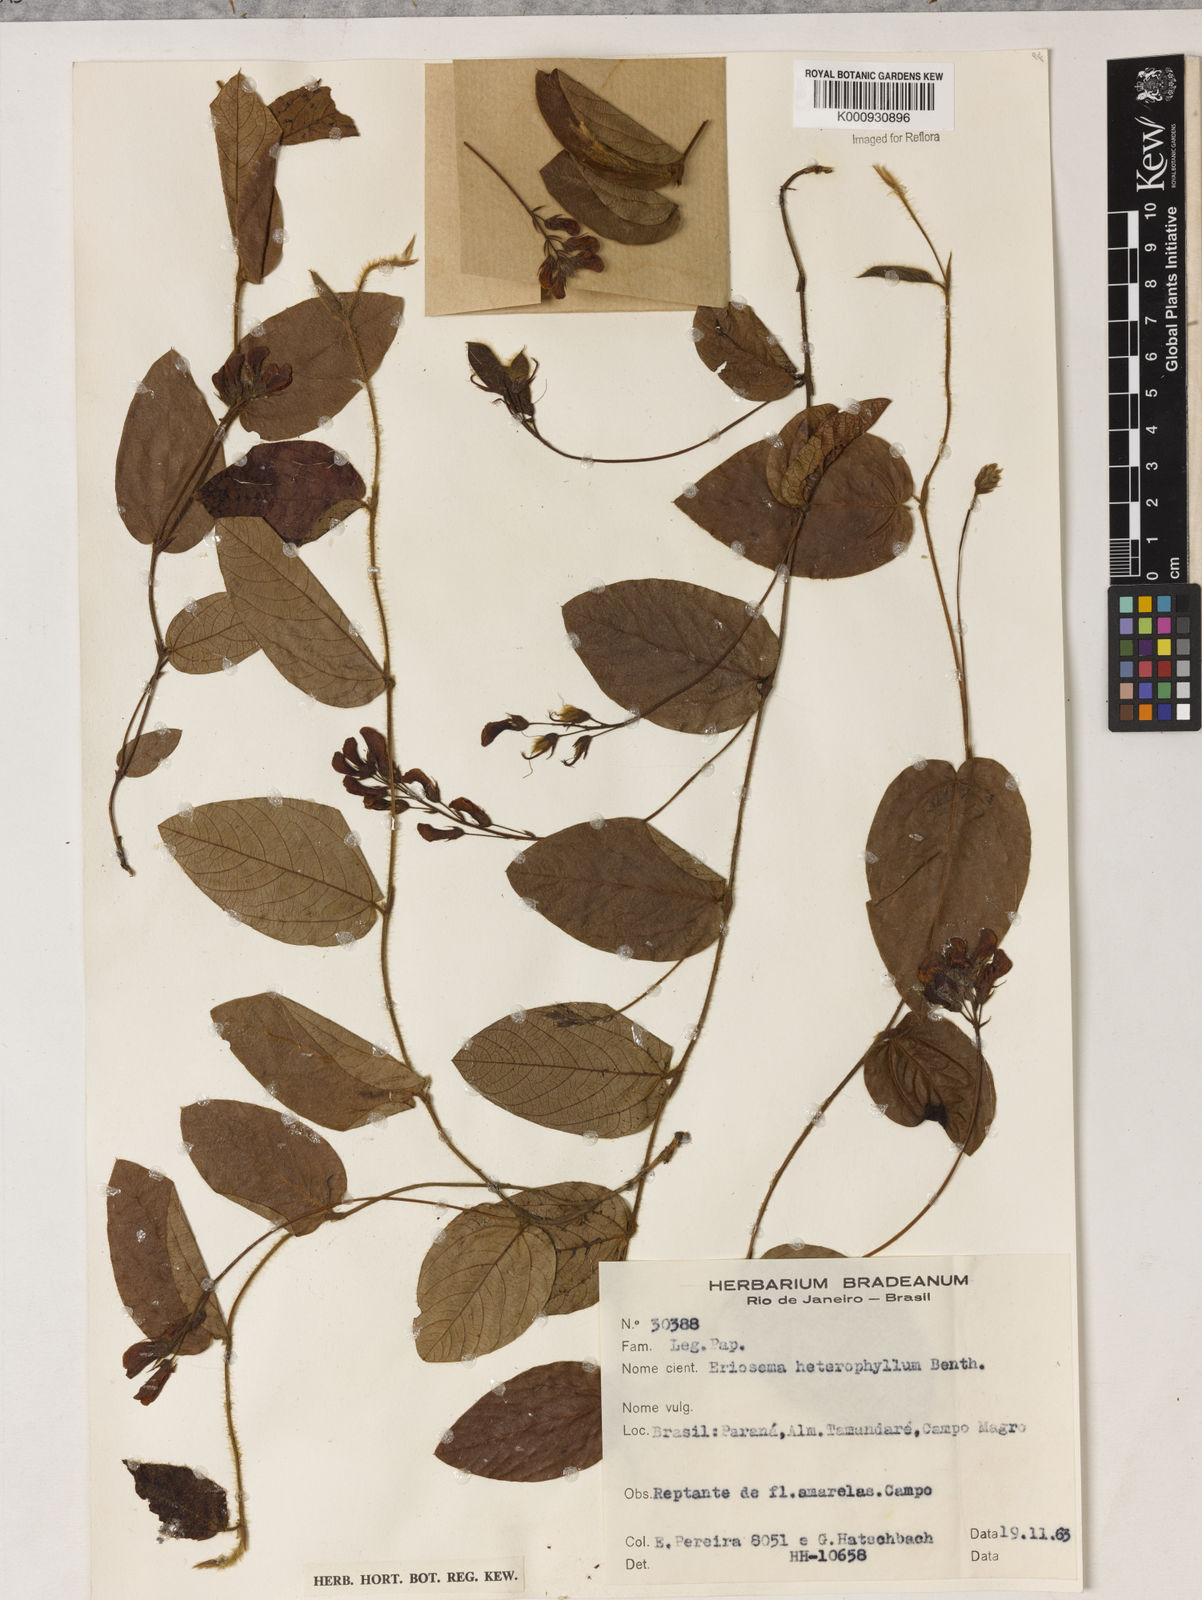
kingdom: Plantae
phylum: Tracheophyta
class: Magnoliopsida
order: Fabales
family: Fabaceae
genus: Eriosema
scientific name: Eriosema heterophyllum
